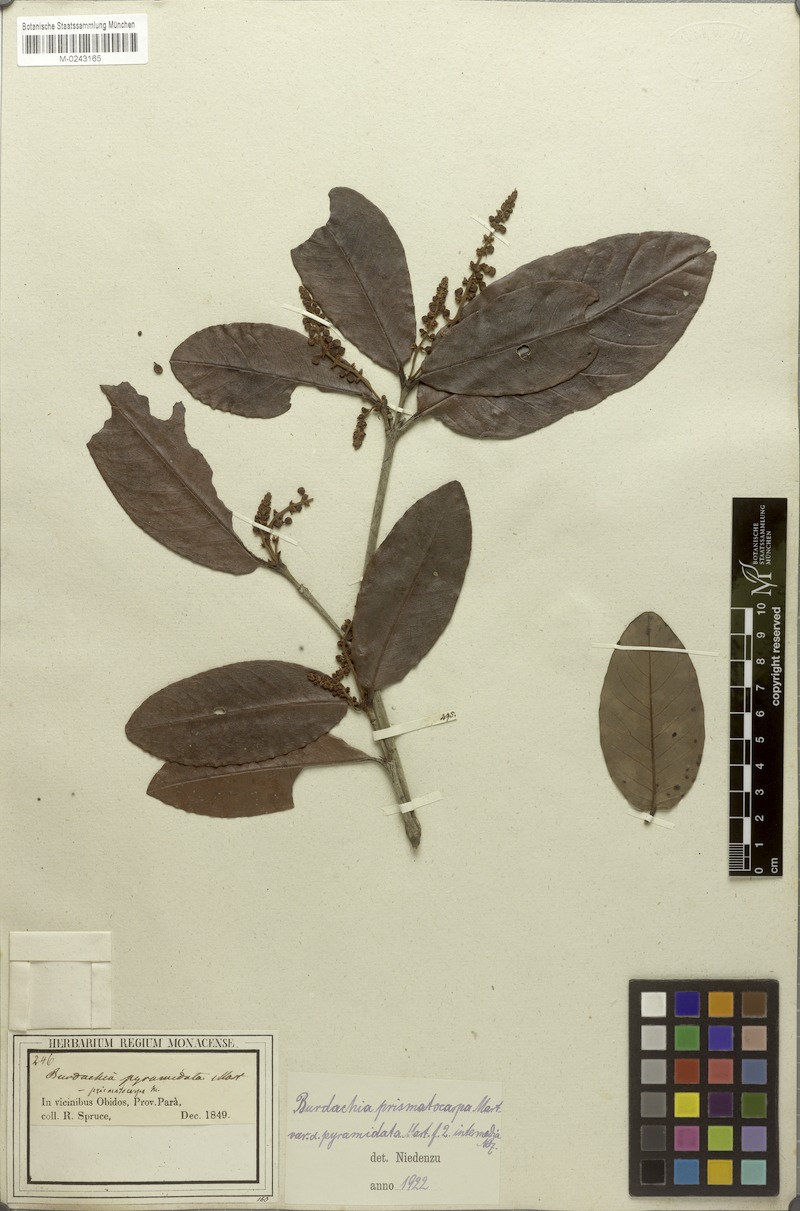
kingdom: Plantae
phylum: Tracheophyta
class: Magnoliopsida
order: Malpighiales
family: Malpighiaceae
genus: Burdachia
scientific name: Burdachia prismatocarpa
